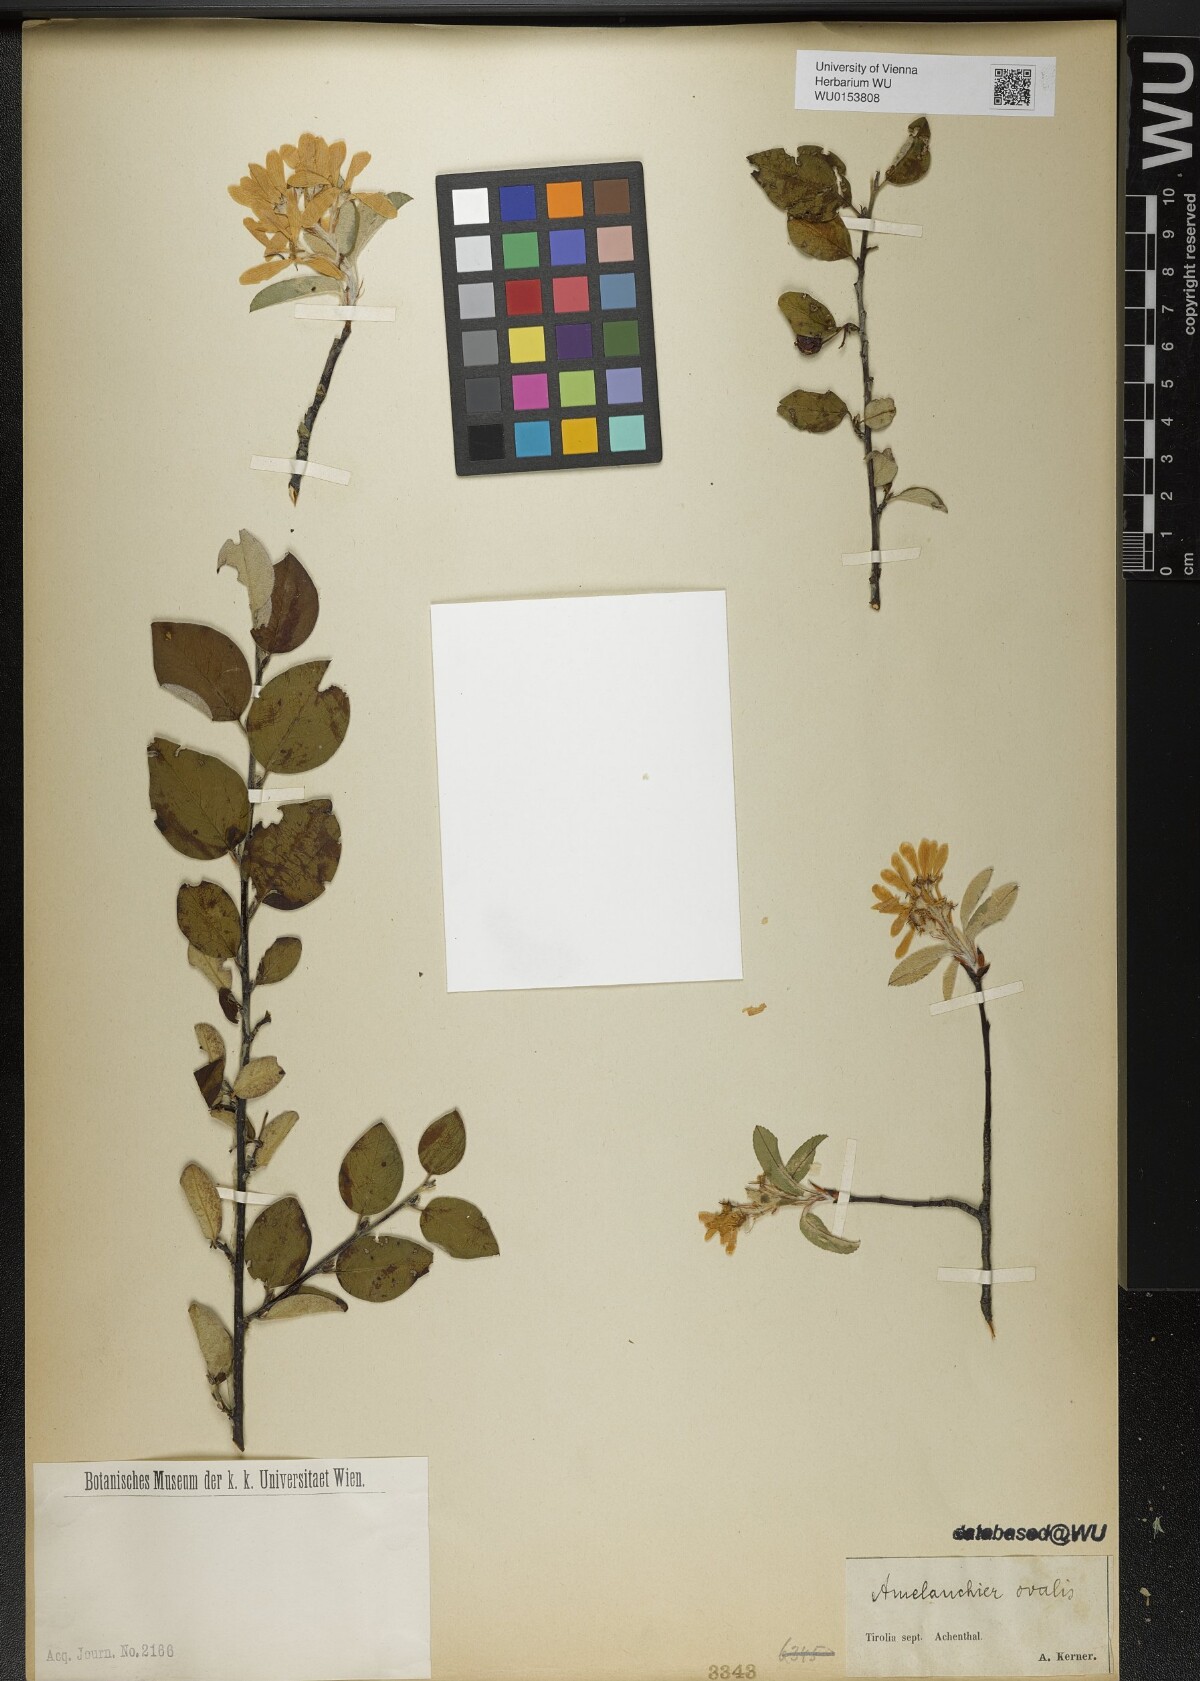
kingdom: Plantae
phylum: Tracheophyta
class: Magnoliopsida
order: Rosales
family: Rosaceae
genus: Amelanchier
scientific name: Amelanchier ovalis
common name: Serviceberry
